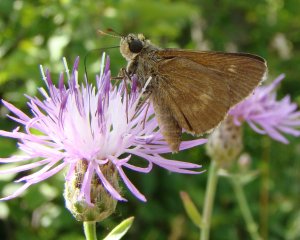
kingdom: Animalia
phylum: Arthropoda
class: Insecta
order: Lepidoptera
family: Hesperiidae
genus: Polites
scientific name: Polites egeremet
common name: Northern Broken-Dash
